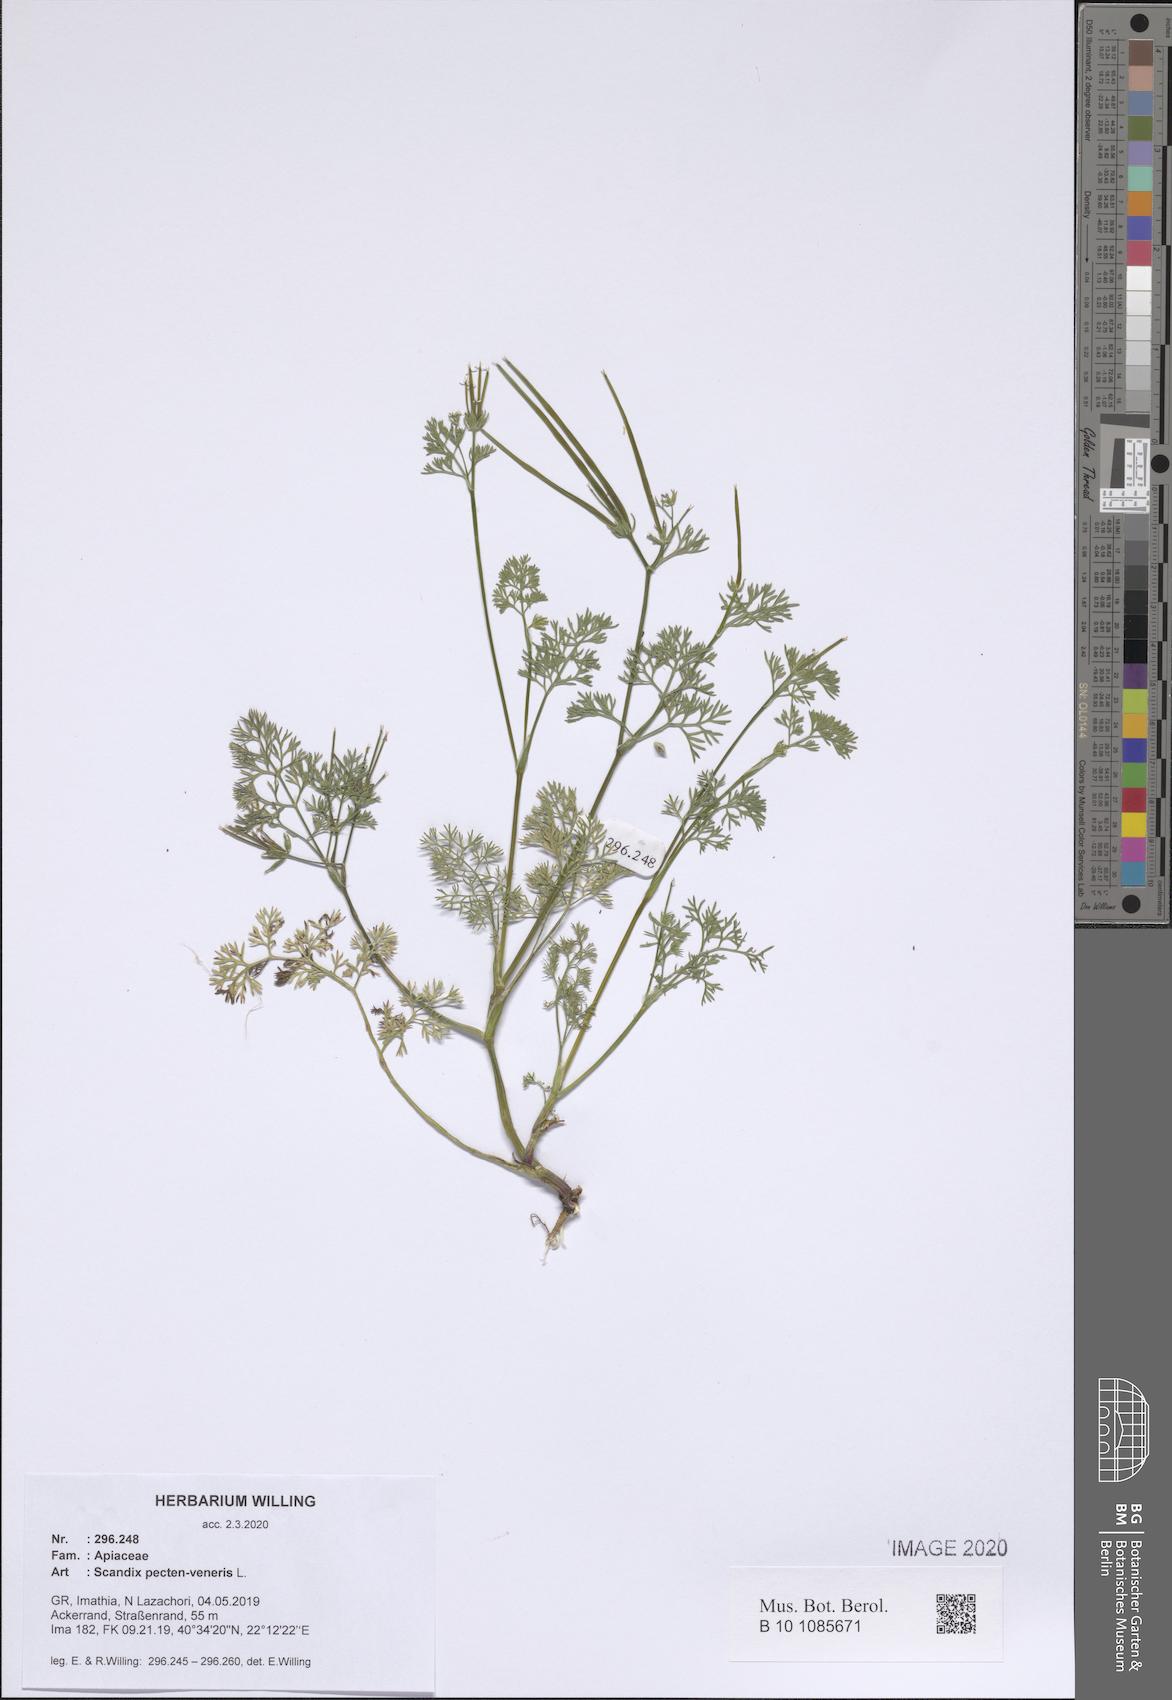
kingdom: Plantae
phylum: Tracheophyta
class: Magnoliopsida
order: Apiales
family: Apiaceae
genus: Scandix
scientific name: Scandix pecten-veneris
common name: Shepherd's-needle
